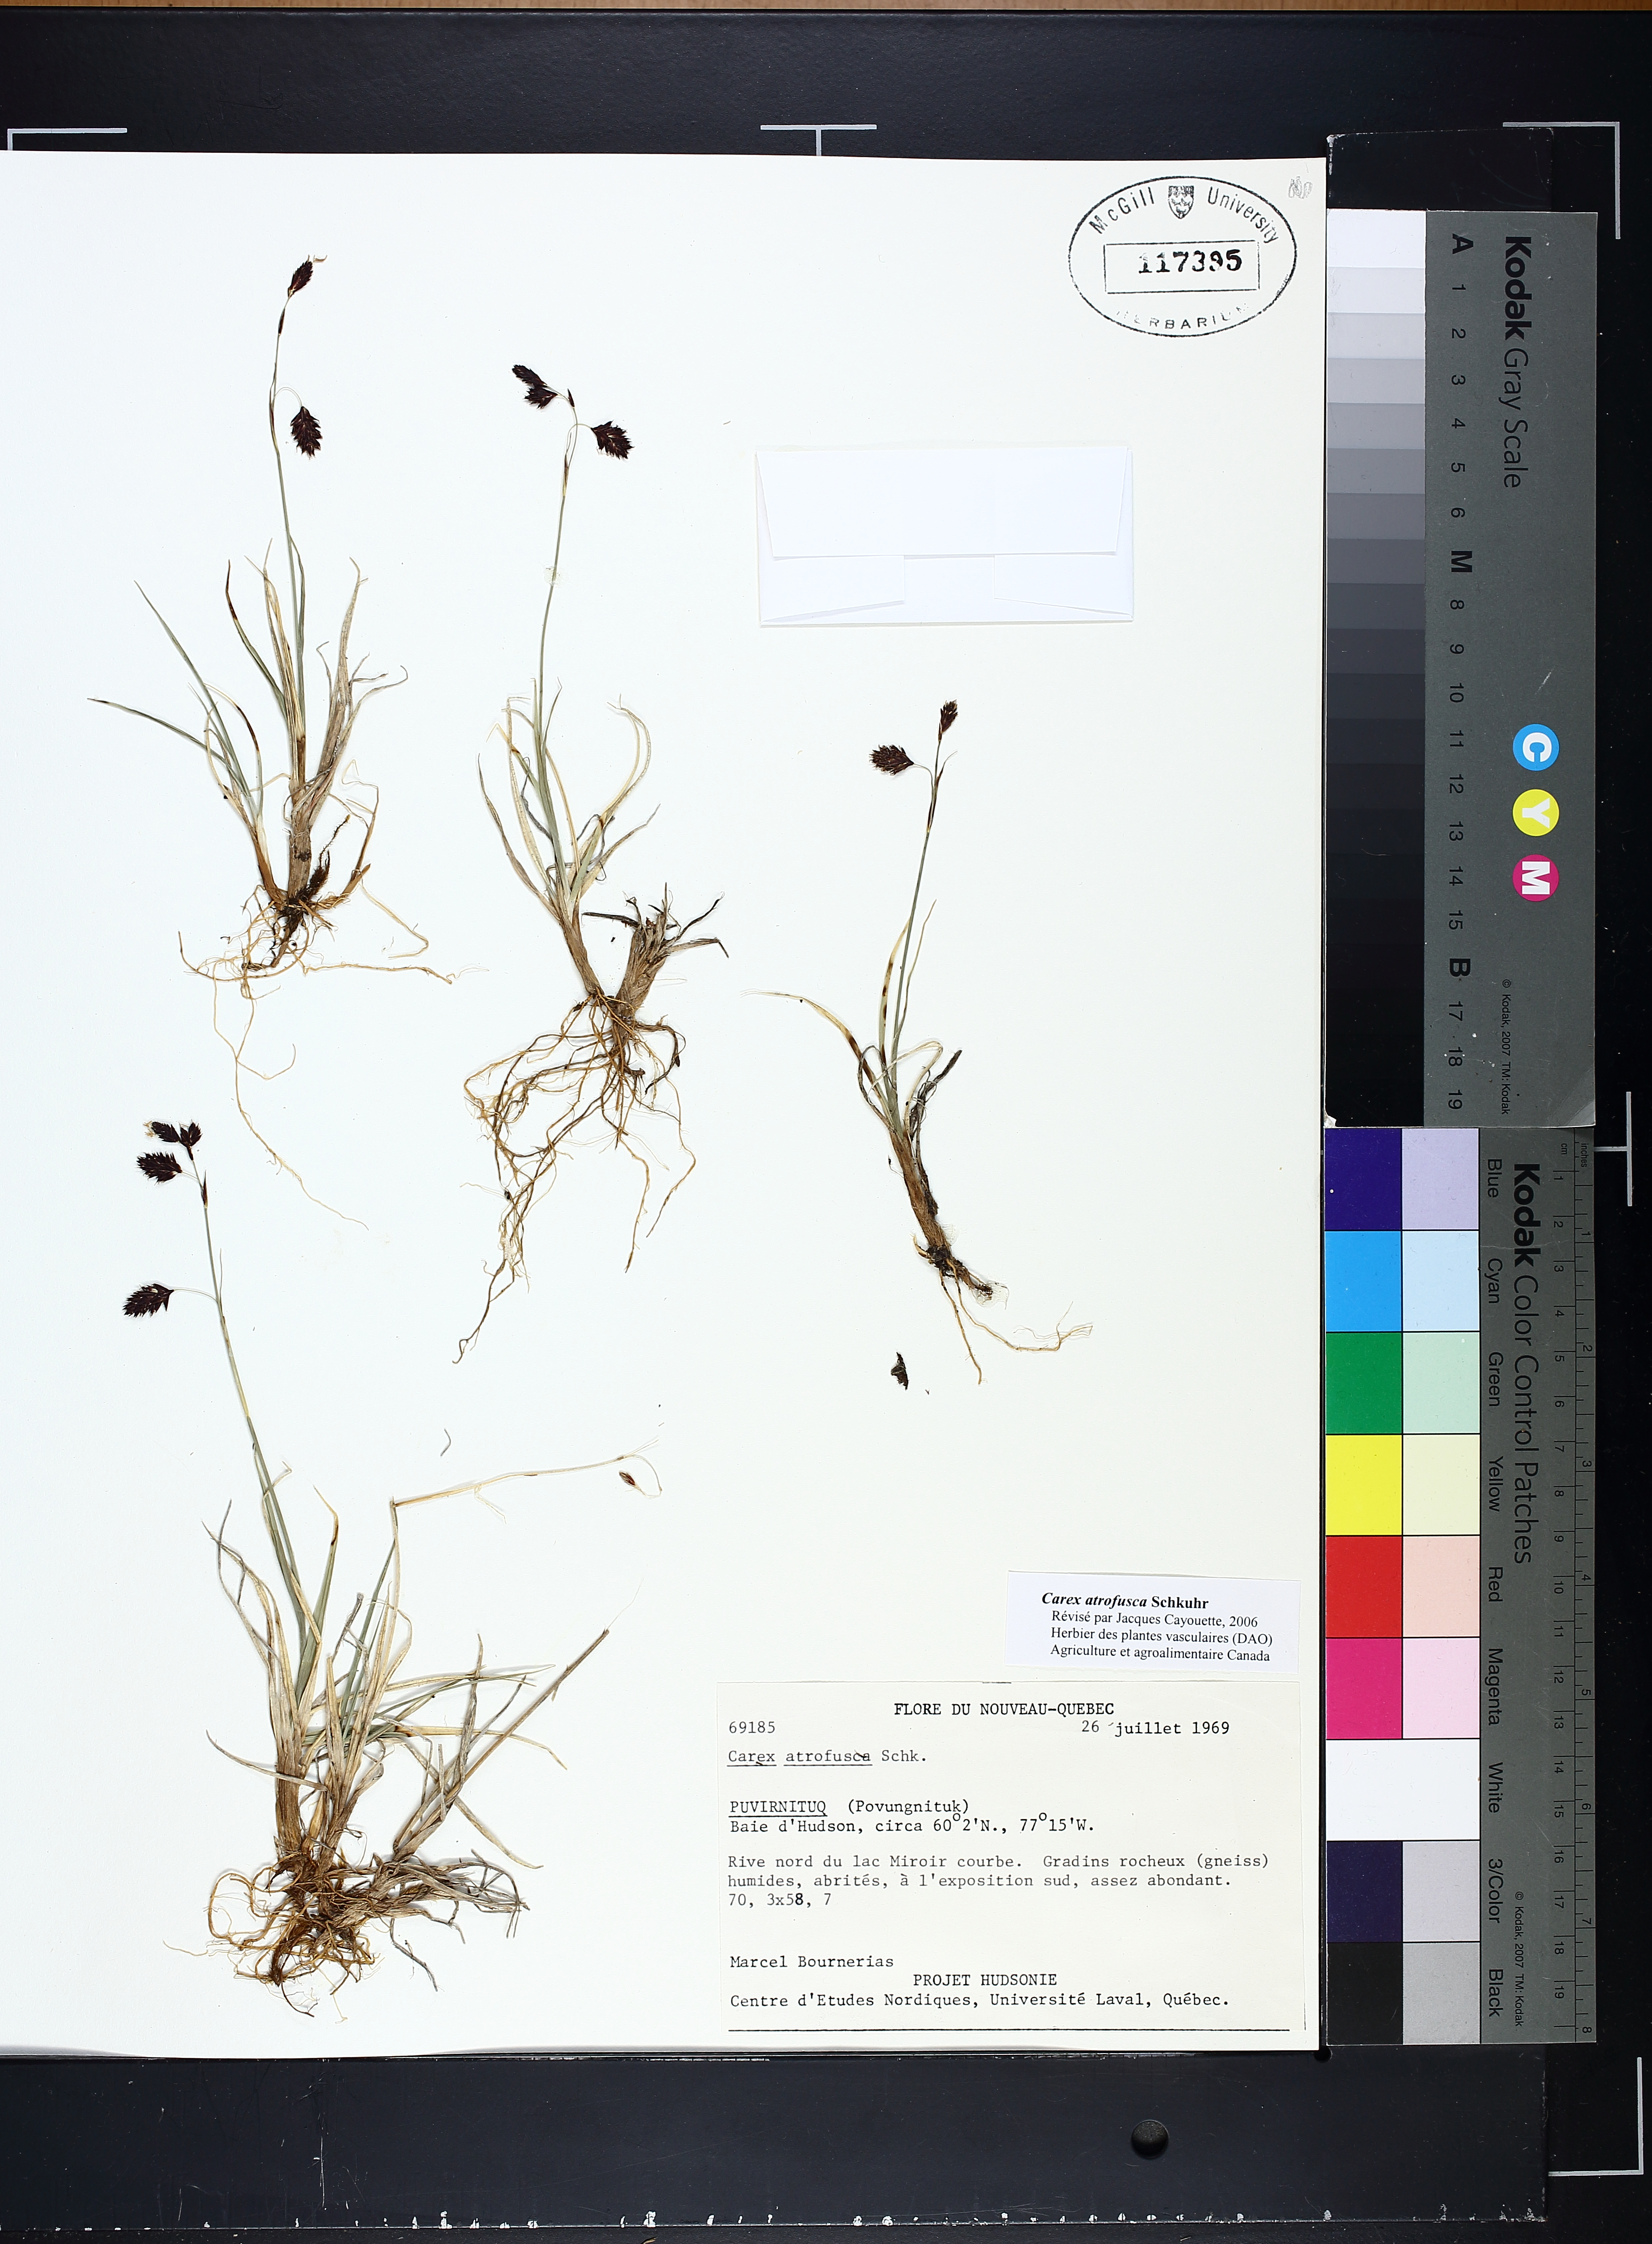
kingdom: Plantae
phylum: Tracheophyta
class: Liliopsida
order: Poales
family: Cyperaceae
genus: Carex
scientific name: Carex atrofusca
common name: Scorched alpine-sedge
